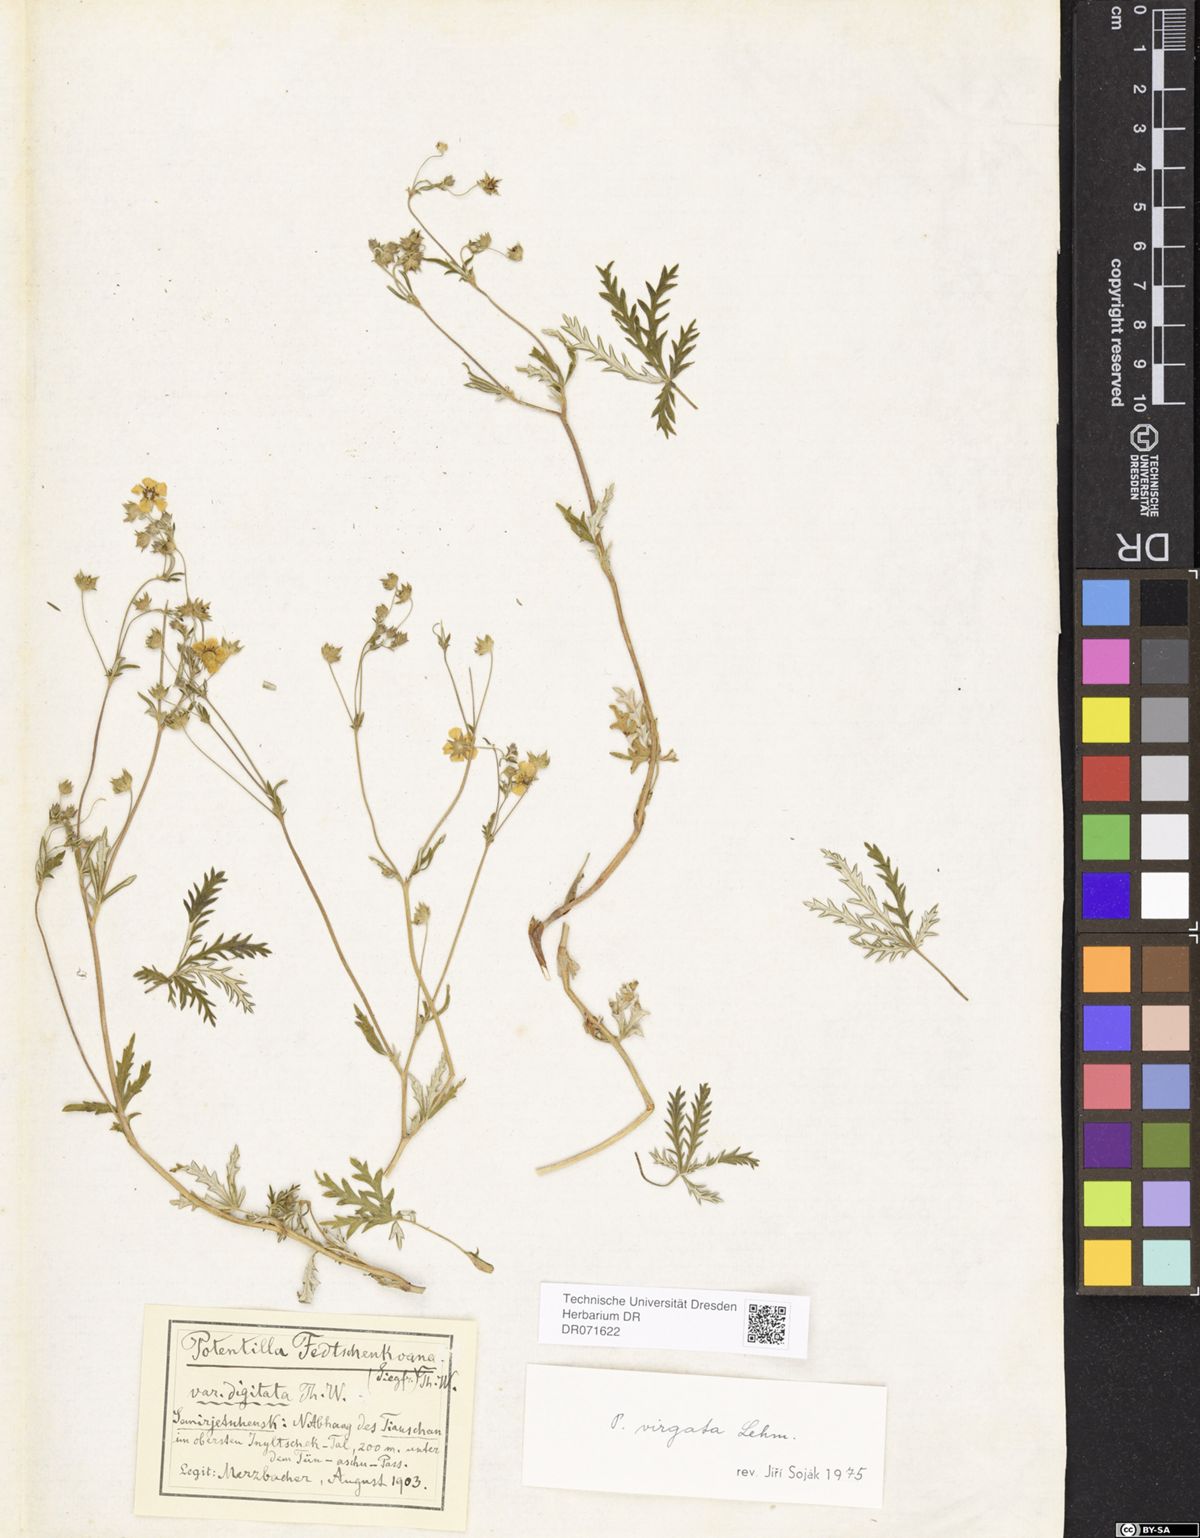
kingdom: Plantae
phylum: Tracheophyta
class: Magnoliopsida
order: Rosales
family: Rosaceae
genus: Potentilla
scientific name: Potentilla virgata
